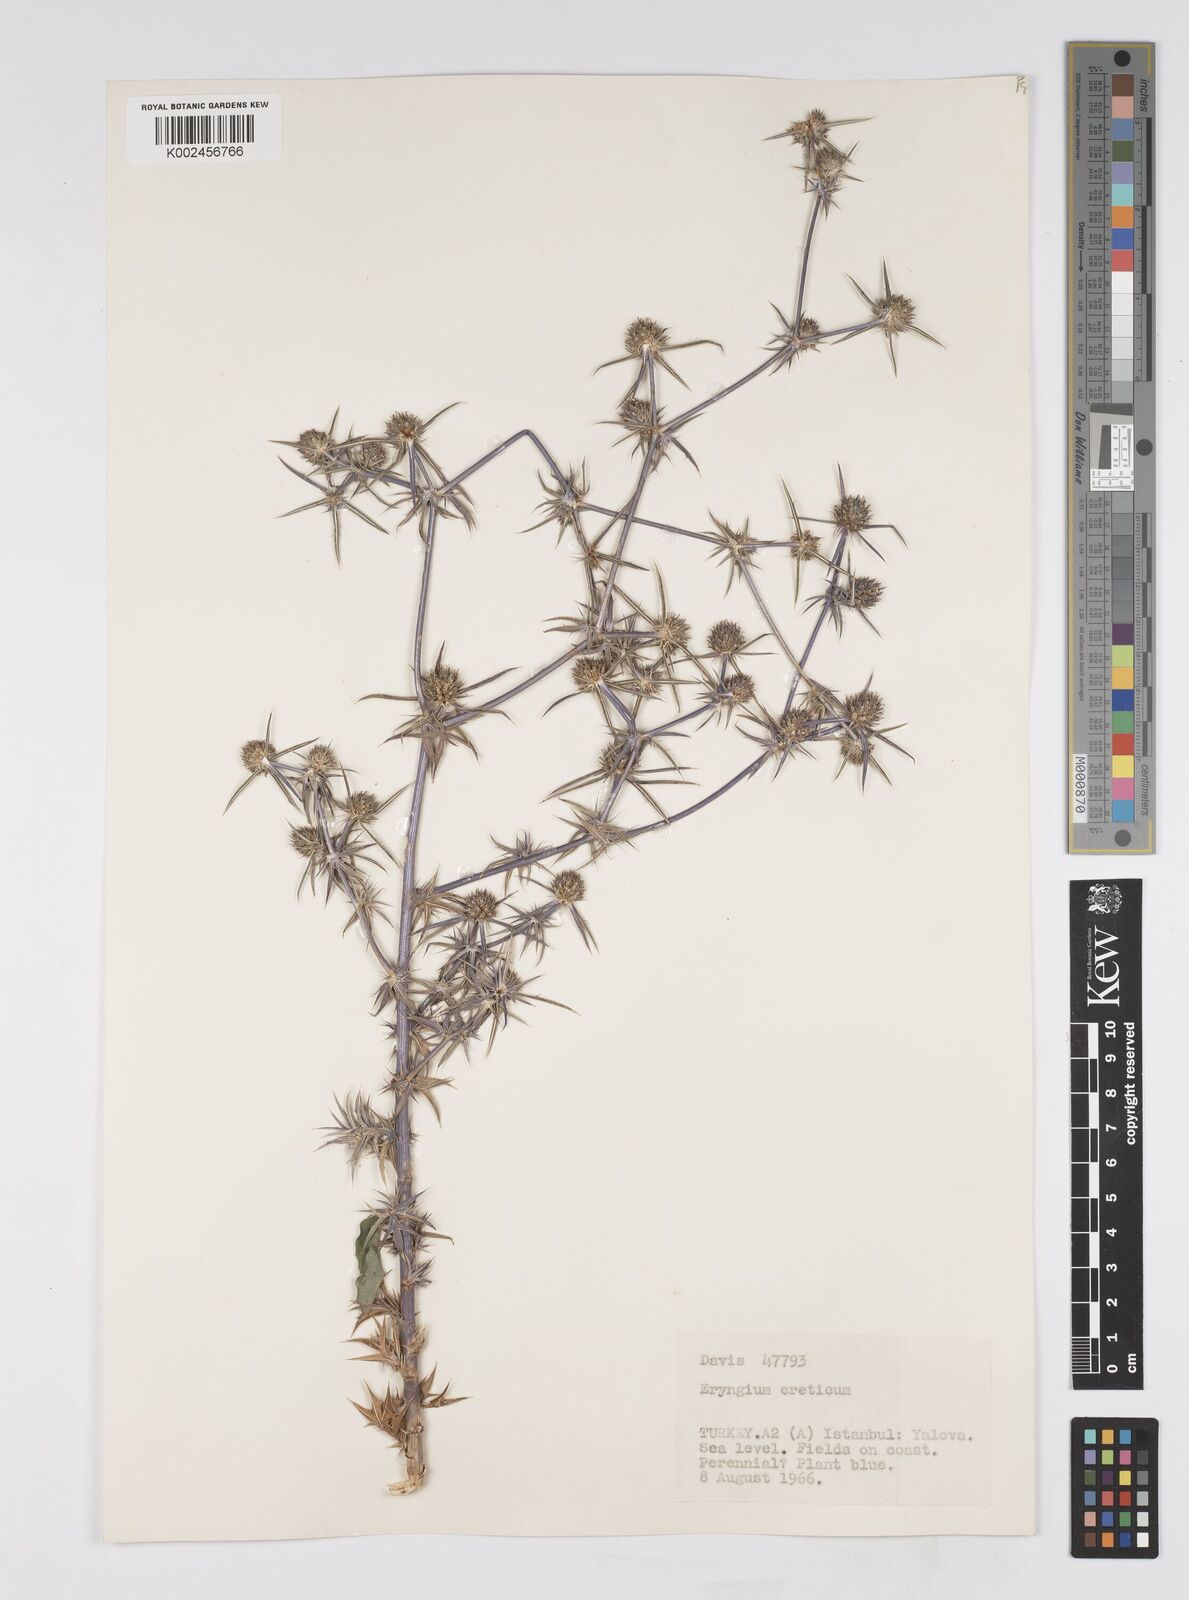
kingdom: Plantae
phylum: Tracheophyta
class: Magnoliopsida
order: Apiales
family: Apiaceae
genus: Eryngium
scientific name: Eryngium creticum
